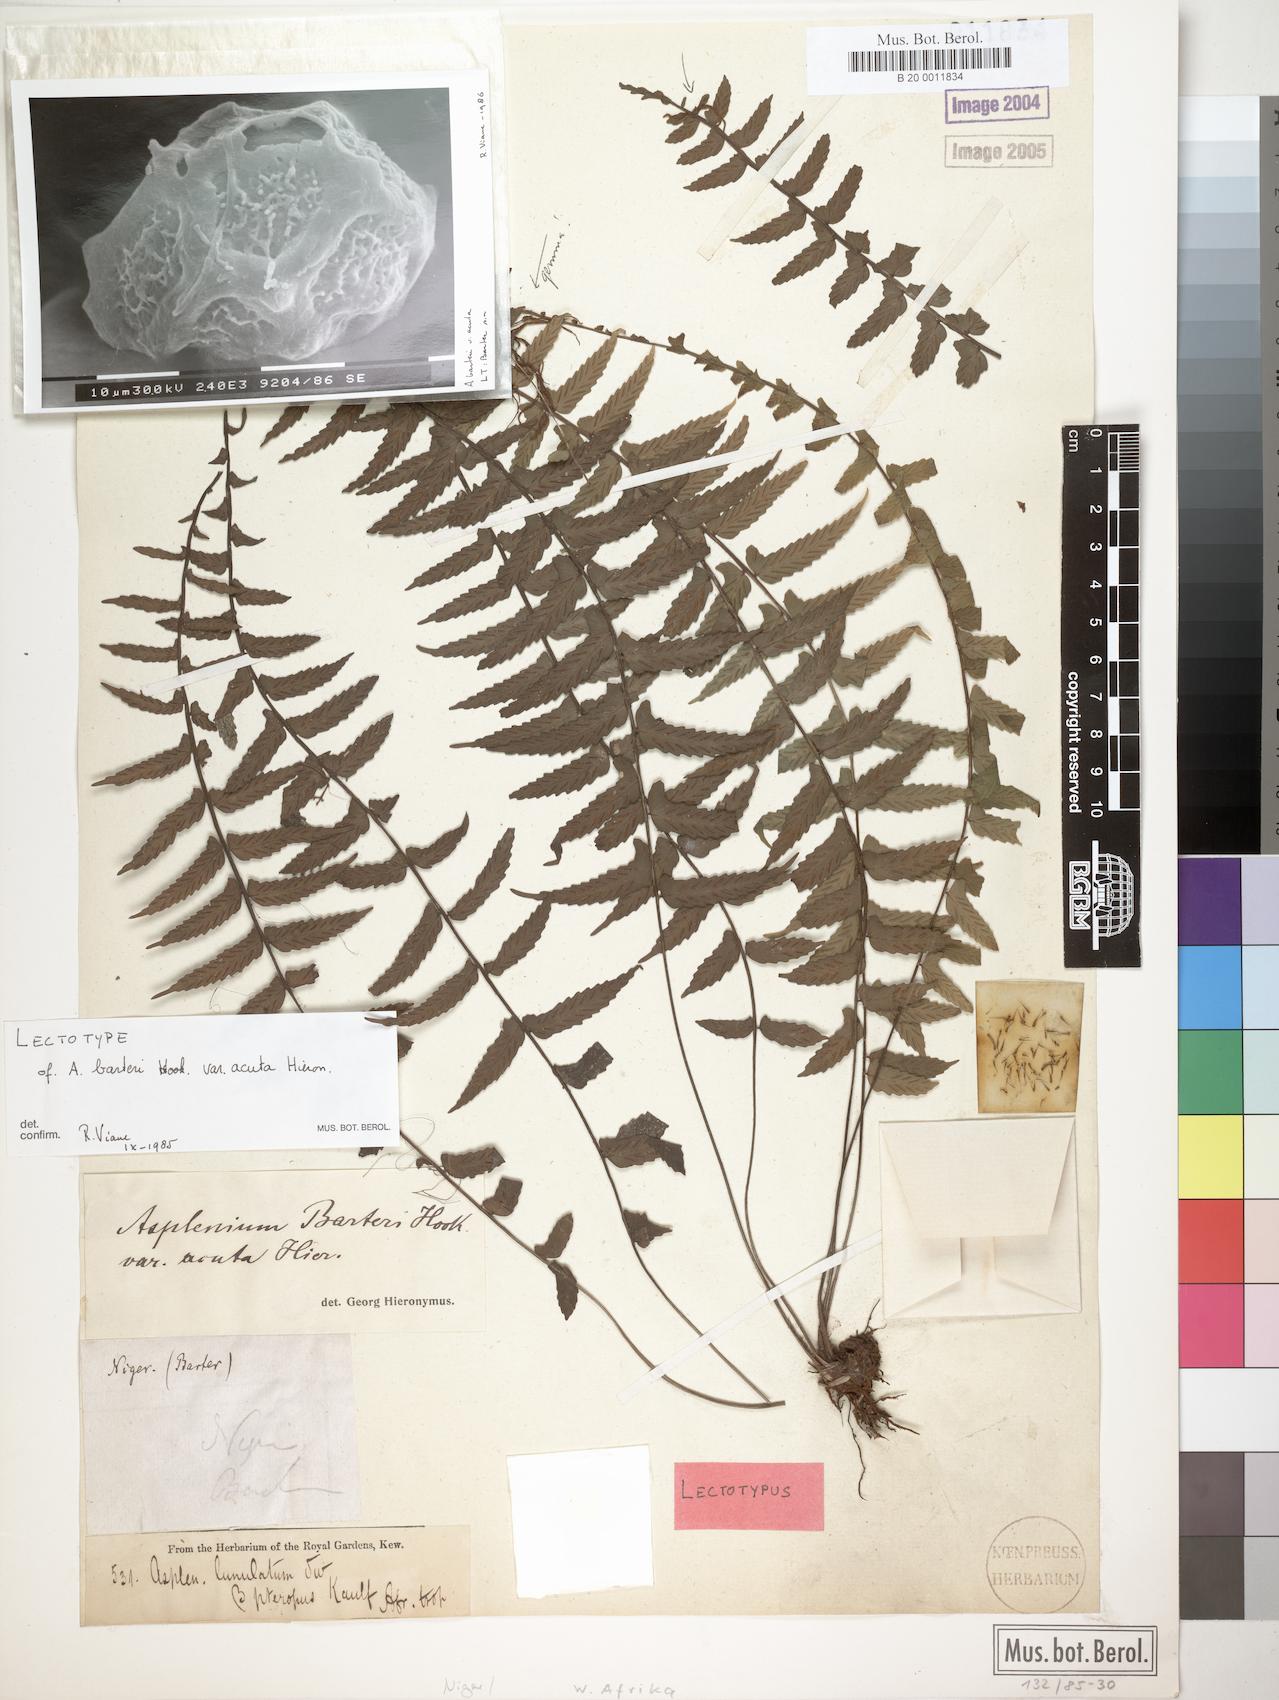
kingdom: Plantae
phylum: Tracheophyta
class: Polypodiopsida
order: Polypodiales
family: Aspleniaceae
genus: Asplenium
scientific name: Asplenium barteri
